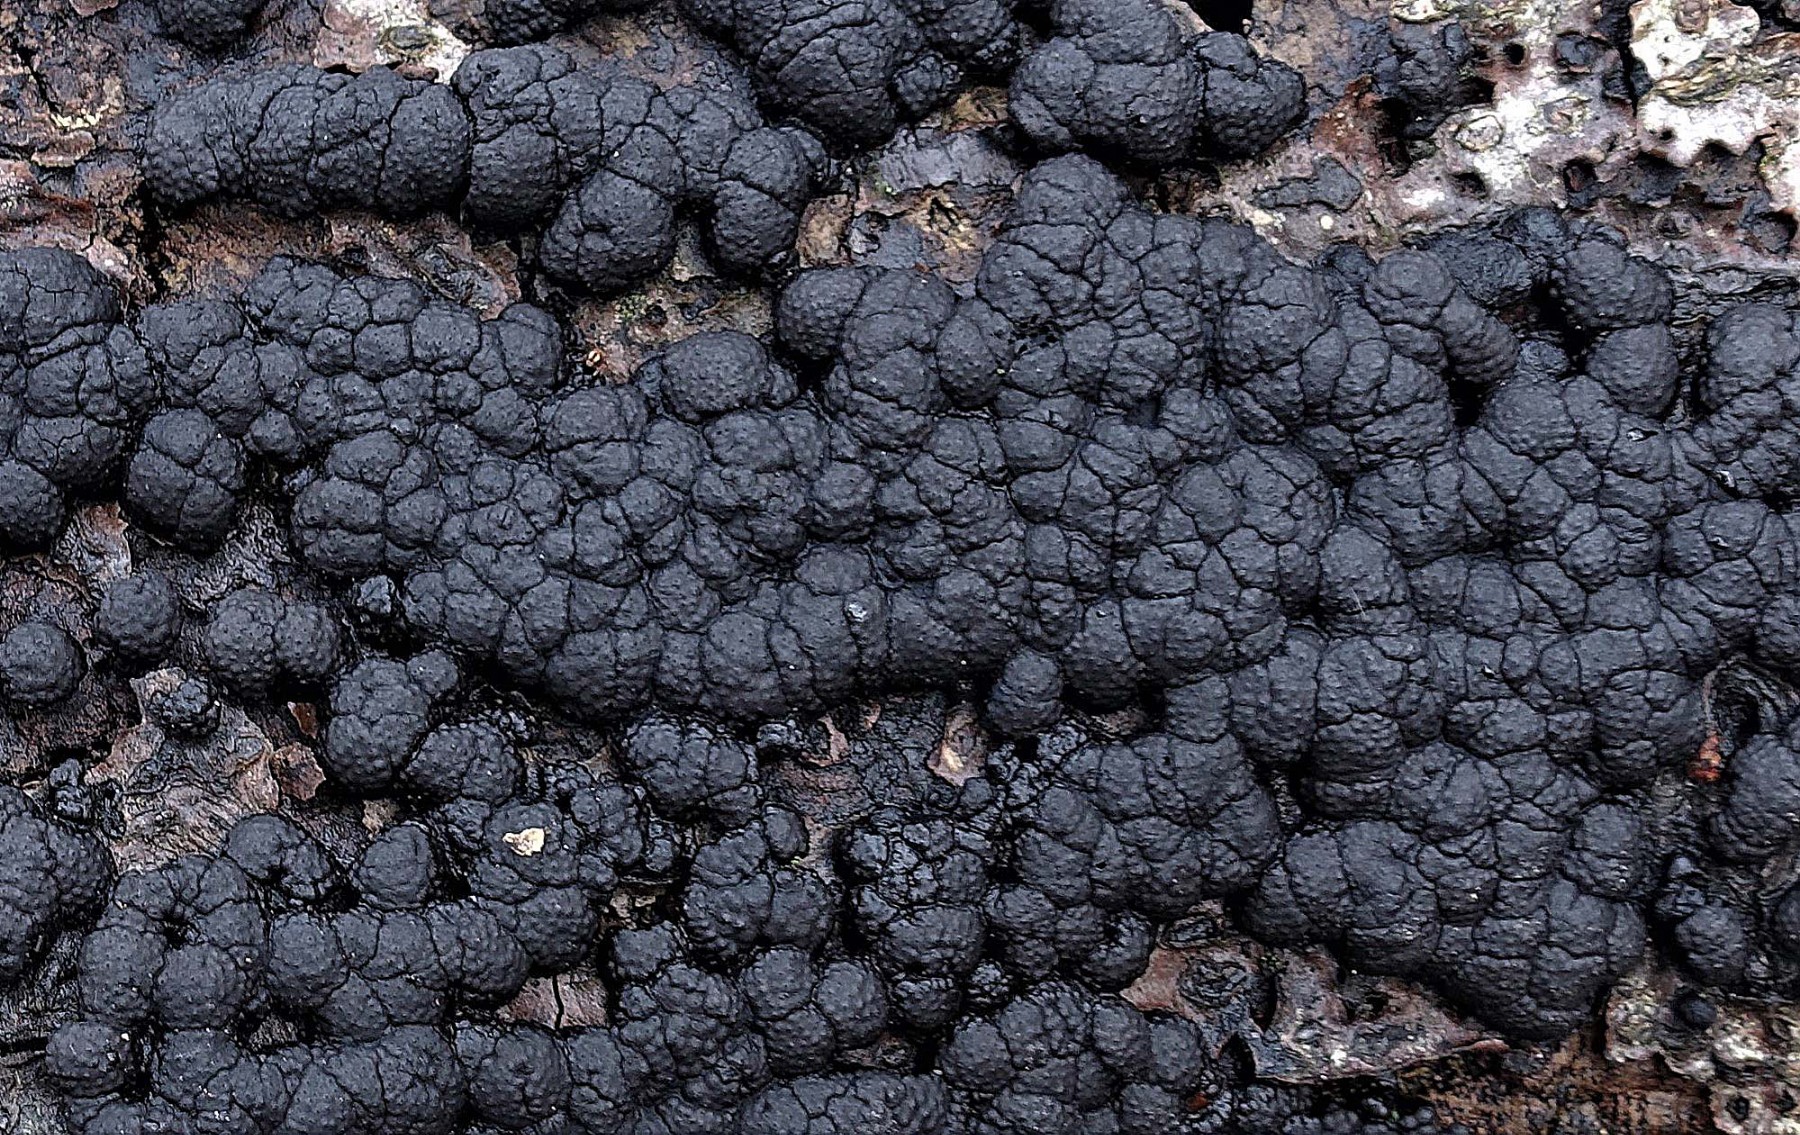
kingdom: Fungi
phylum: Ascomycota
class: Sordariomycetes
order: Xylariales
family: Hypoxylaceae
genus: Jackrogersella
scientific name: Jackrogersella cohaerens
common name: sammenflydende kulbær
